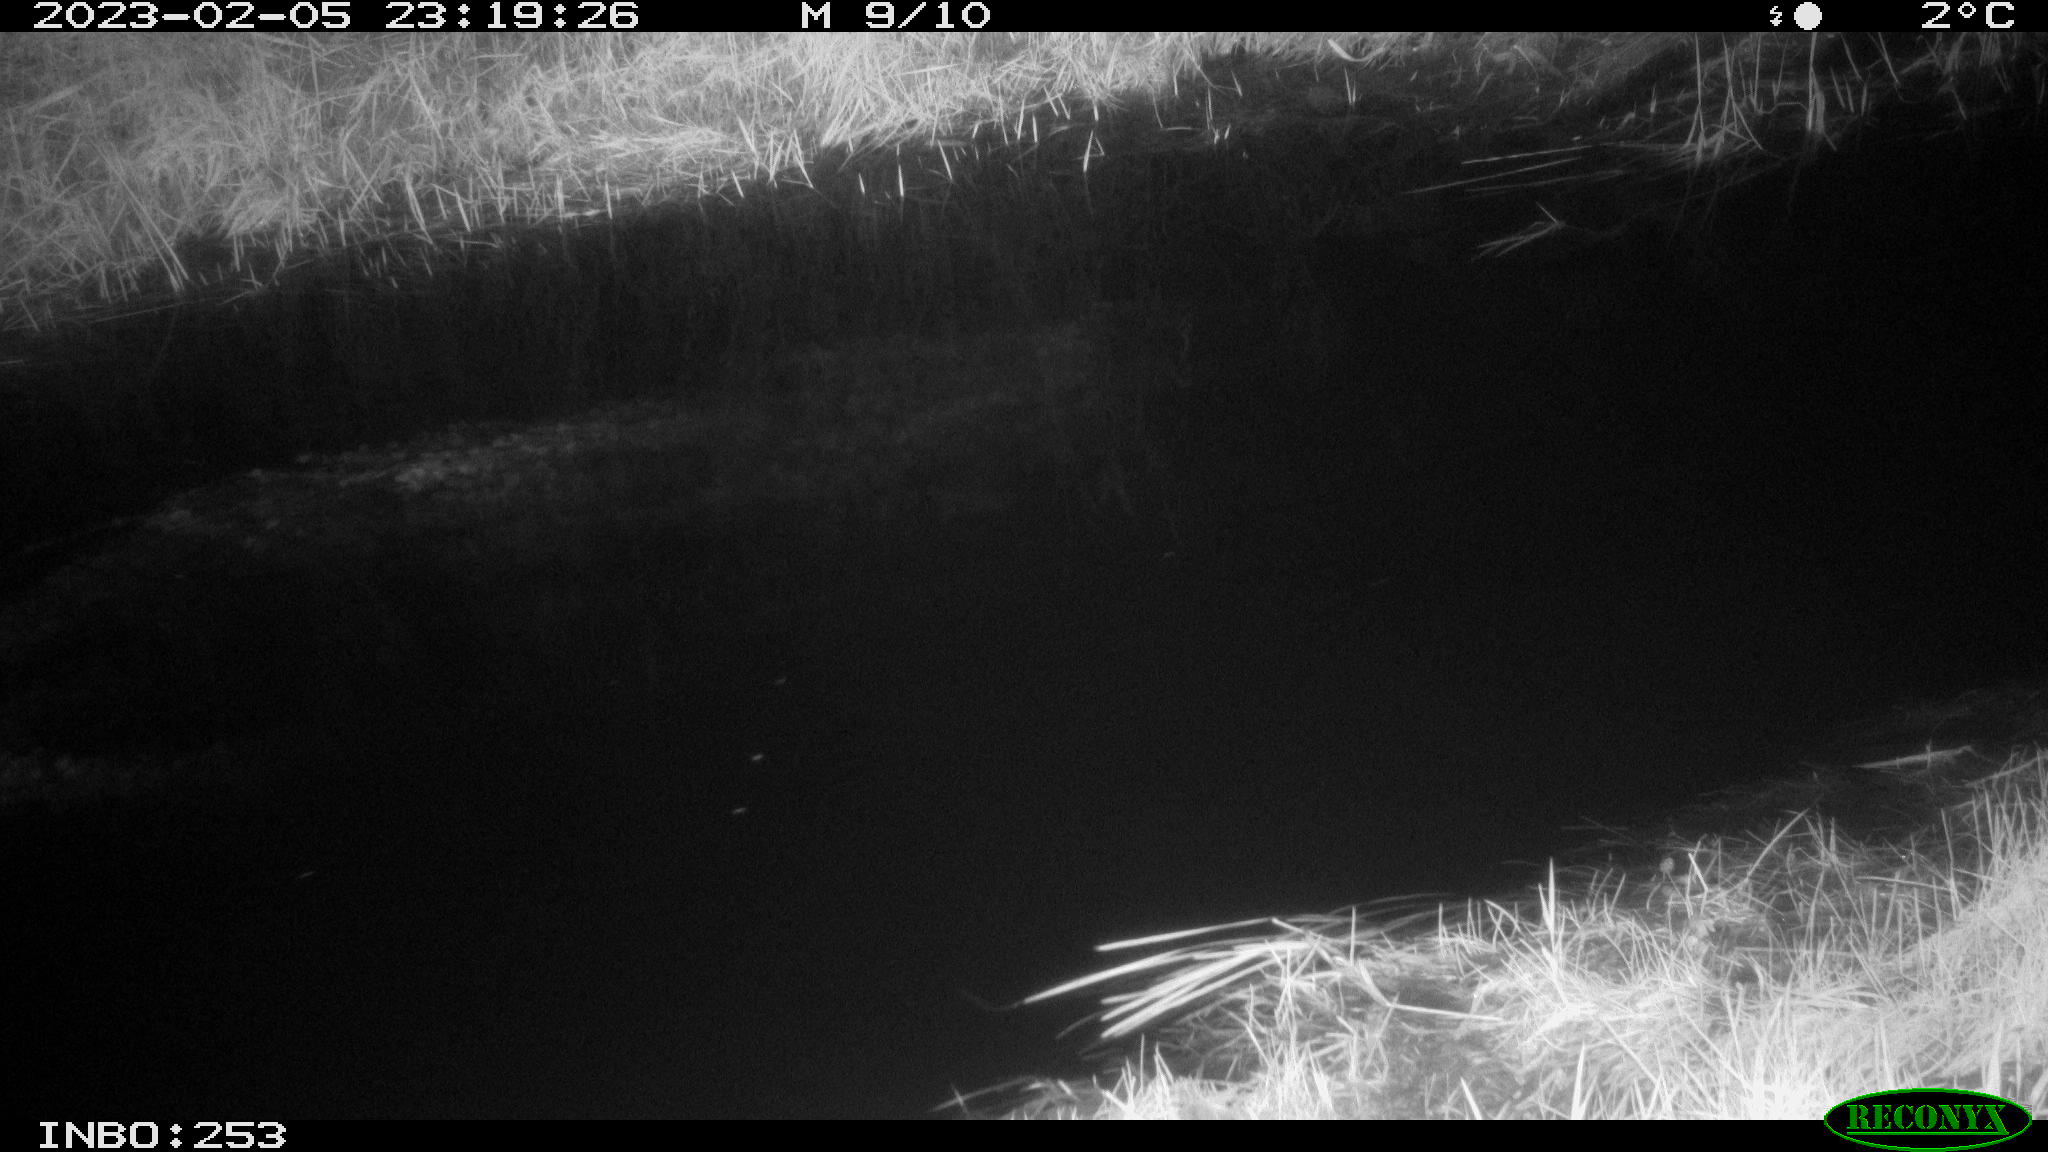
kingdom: Animalia
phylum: Chordata
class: Aves
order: Anseriformes
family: Anatidae
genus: Anas
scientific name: Anas
